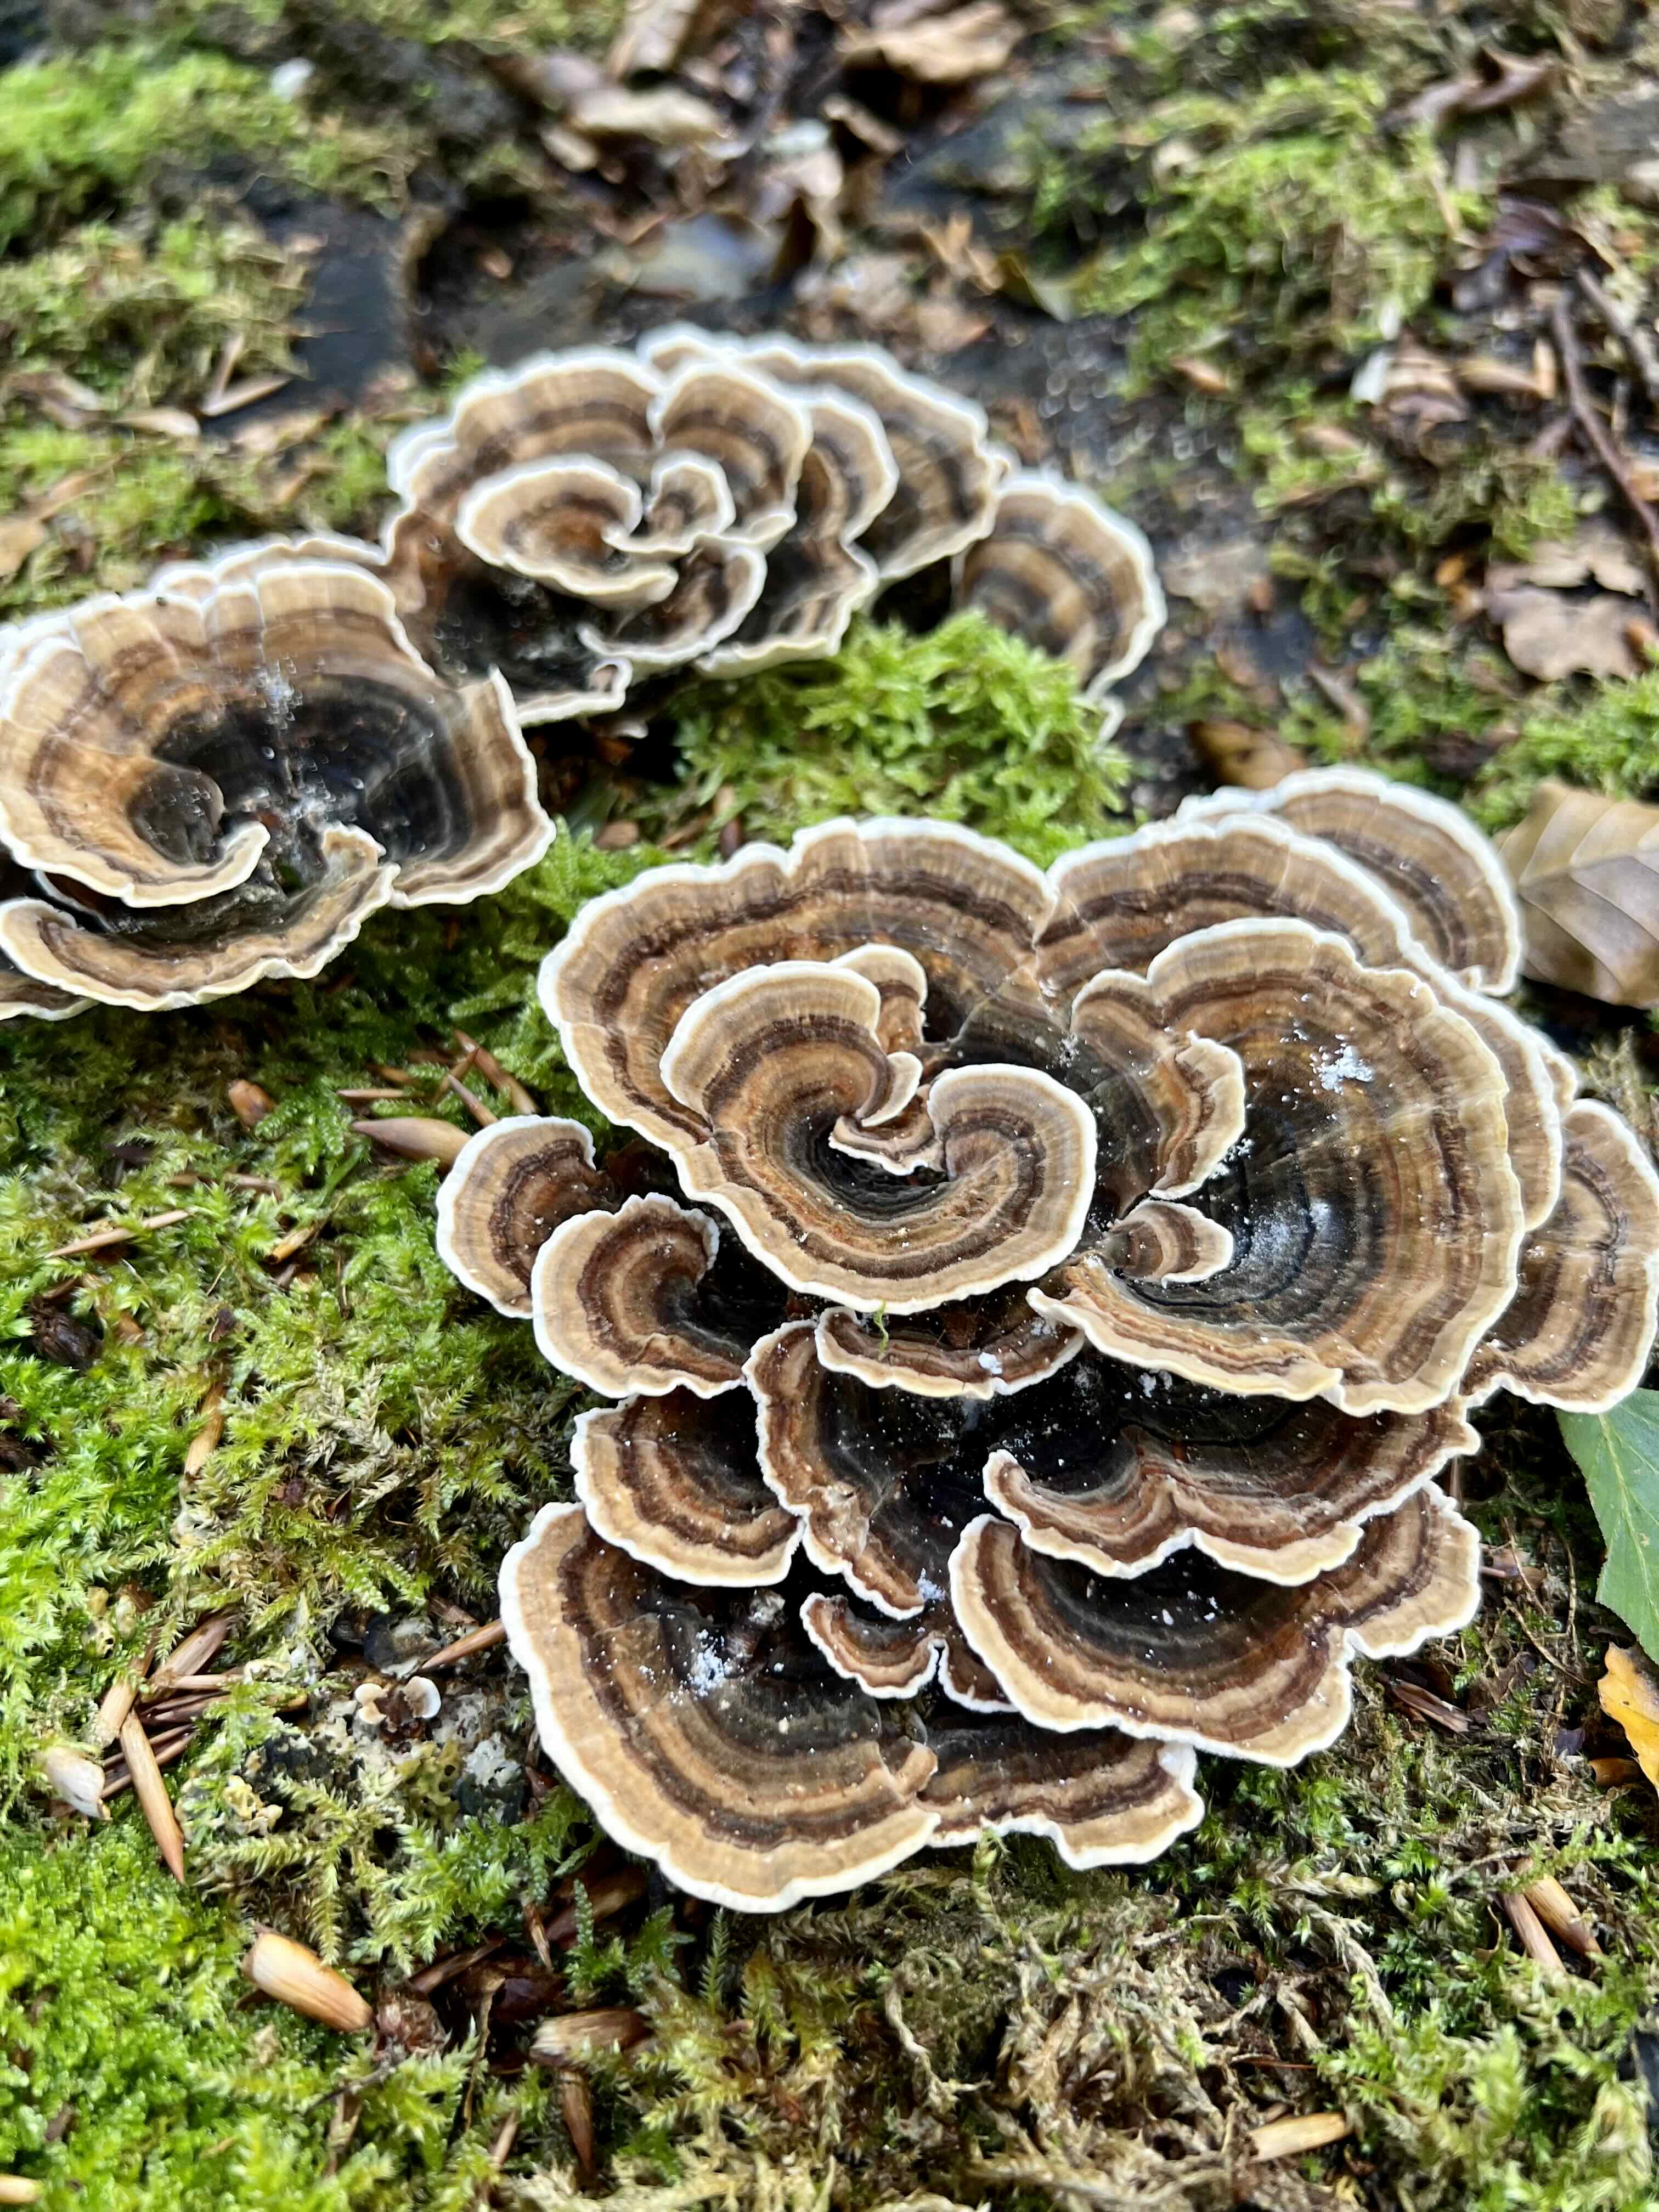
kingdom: Fungi
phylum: Basidiomycota
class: Agaricomycetes
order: Polyporales
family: Polyporaceae
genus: Trametes
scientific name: Trametes versicolor
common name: broget læderporesvamp
